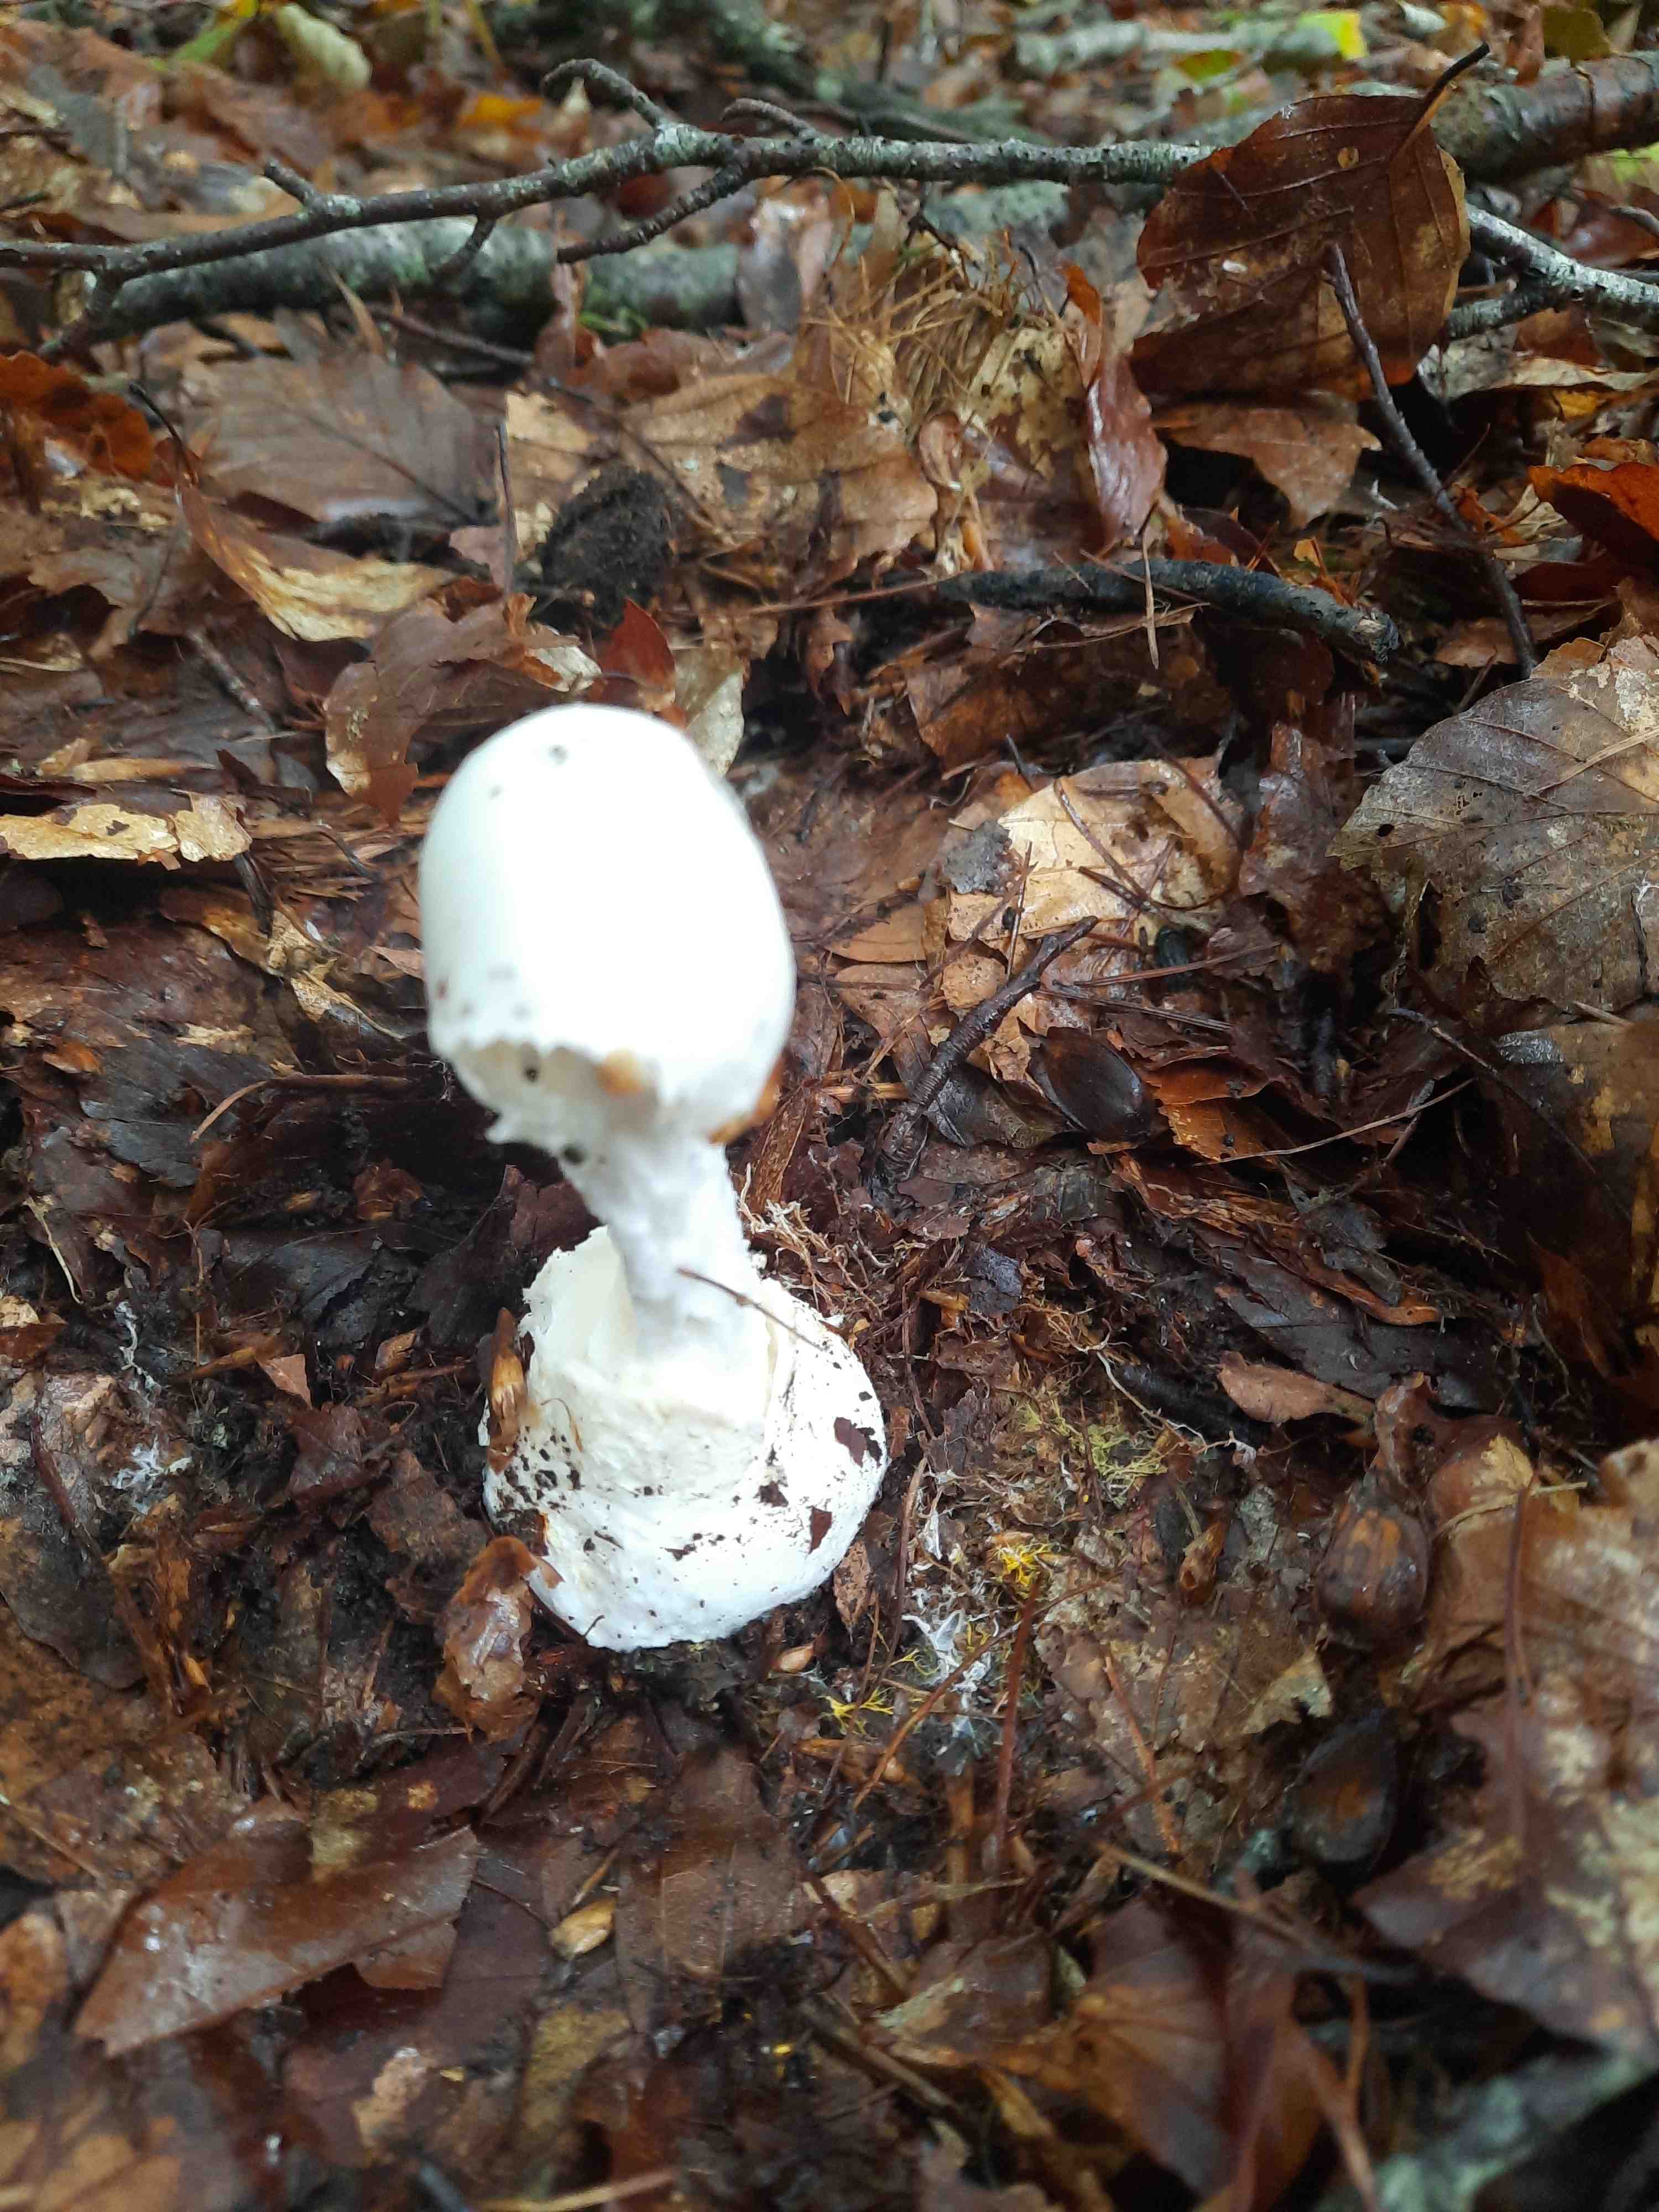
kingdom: Fungi
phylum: Basidiomycota
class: Agaricomycetes
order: Agaricales
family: Amanitaceae
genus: Amanita
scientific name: Amanita virosa
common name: snehvid fluesvamp
